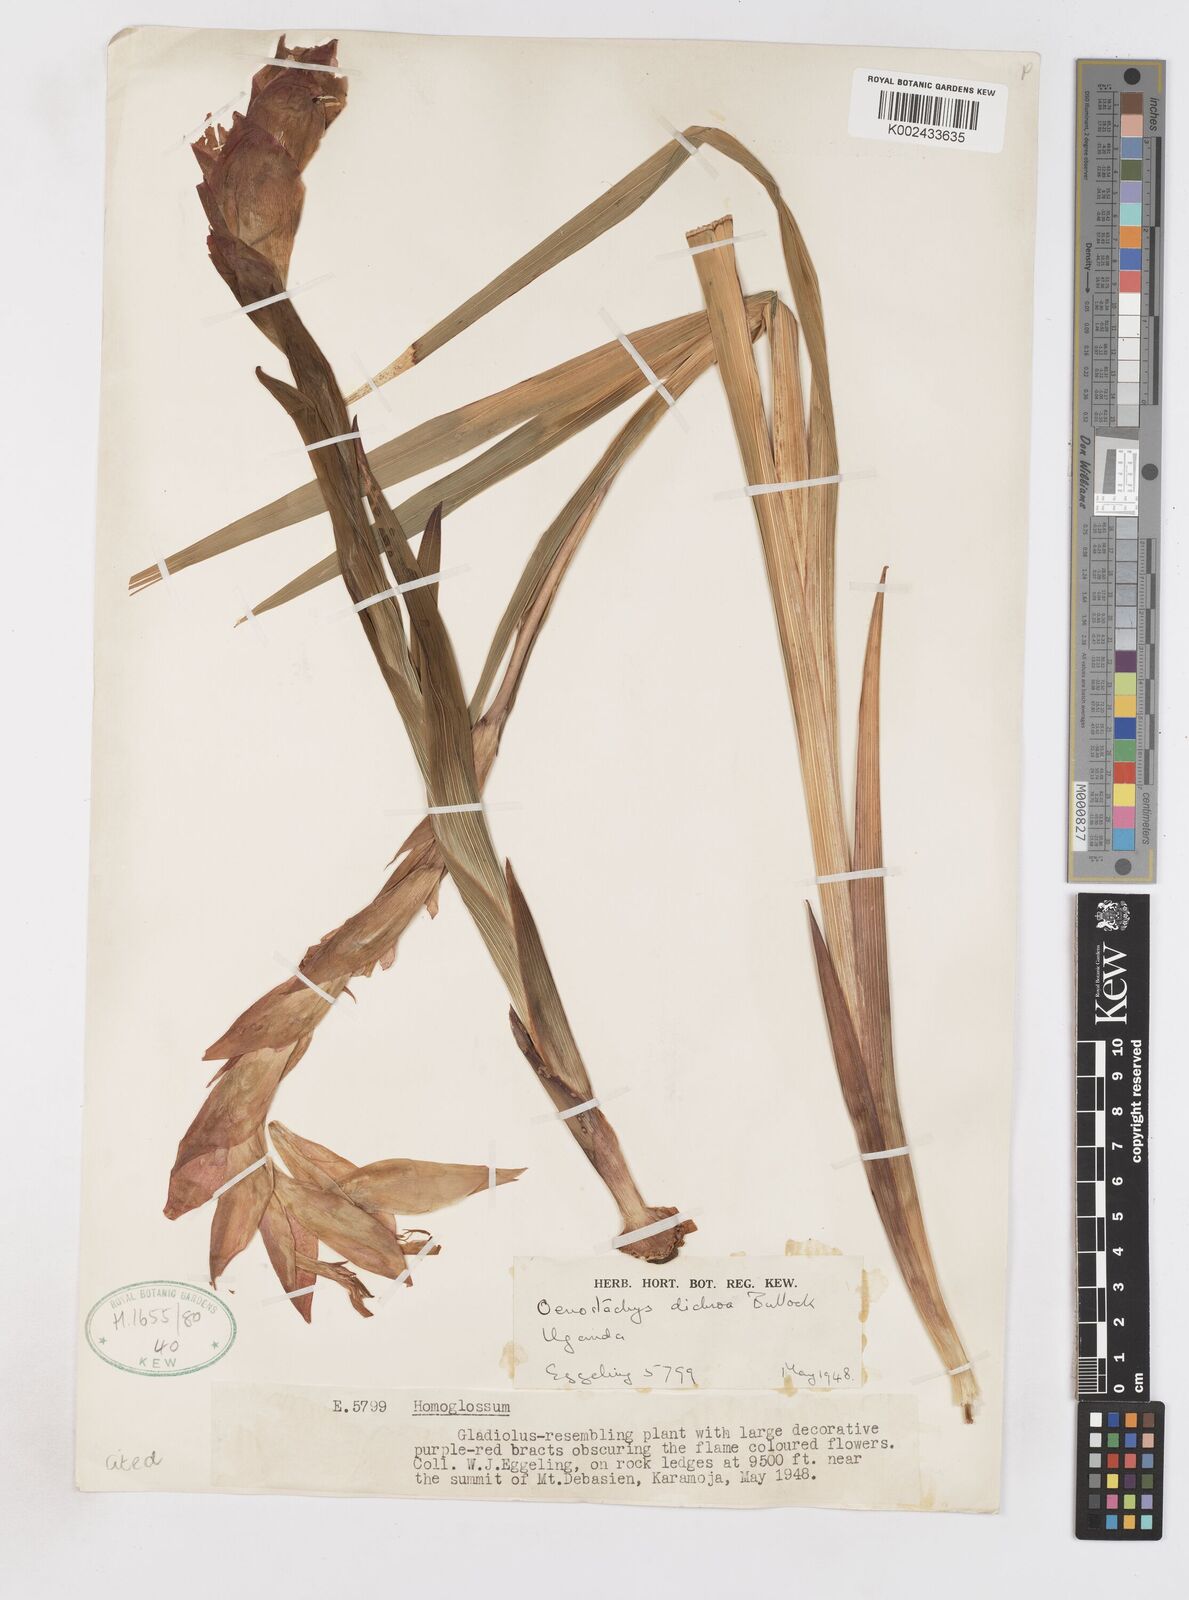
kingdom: Plantae
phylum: Tracheophyta
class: Liliopsida
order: Asparagales
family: Iridaceae
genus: Gladiolus
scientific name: Gladiolus dichrous
